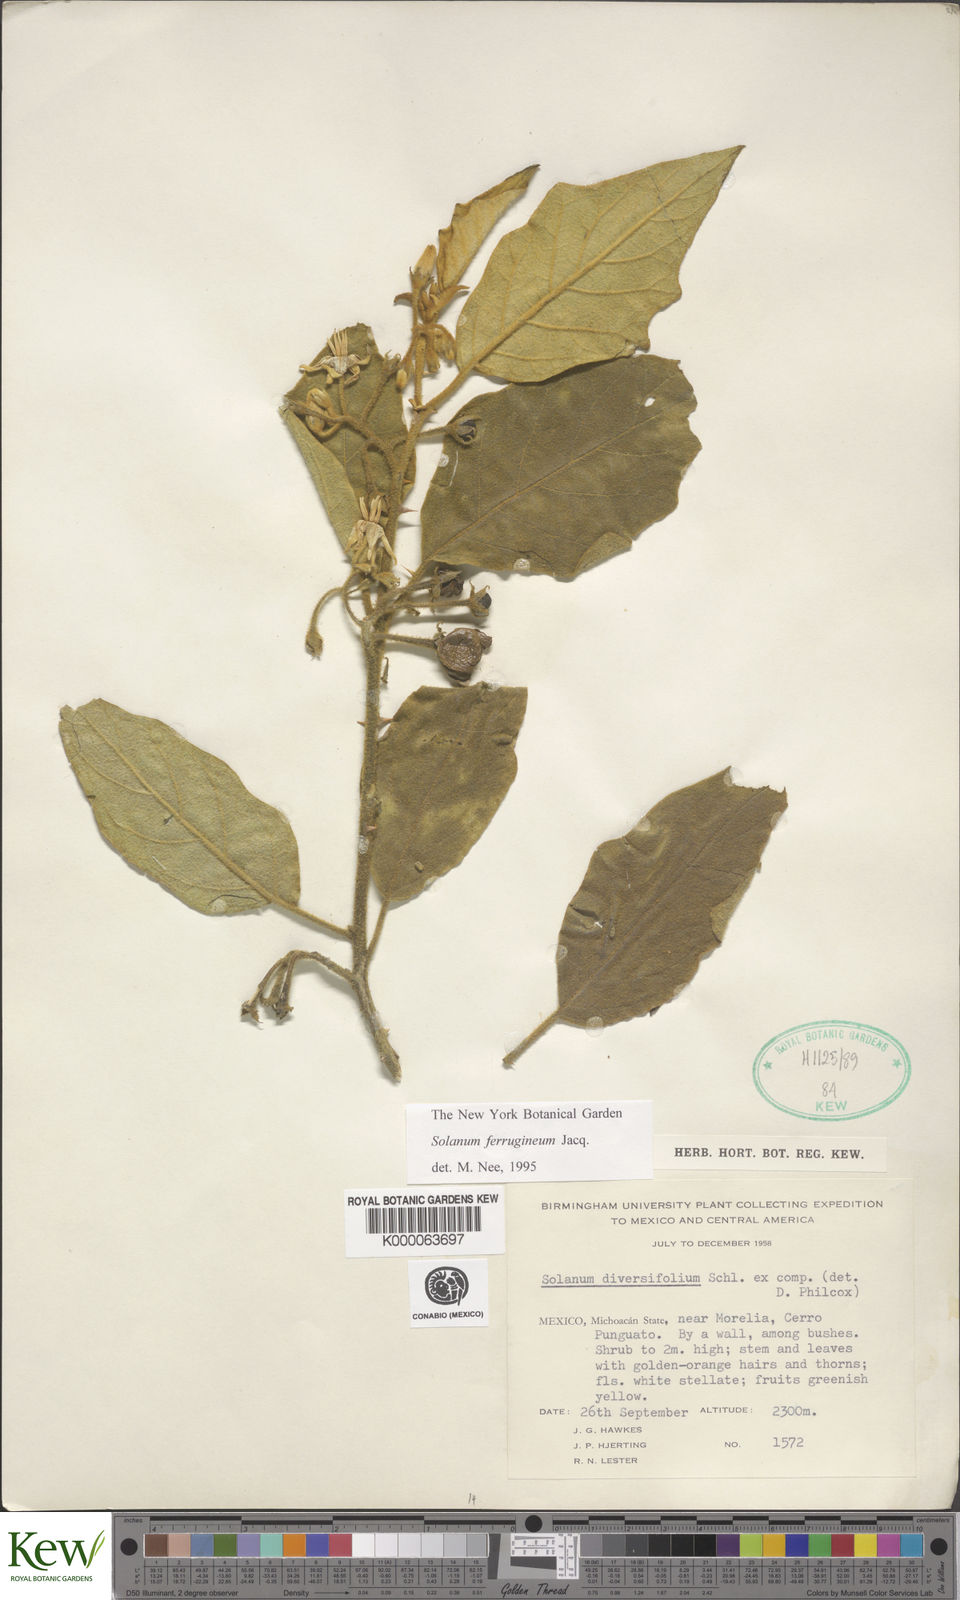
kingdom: Plantae
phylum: Tracheophyta
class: Magnoliopsida
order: Solanales
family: Solanaceae
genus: Solanum
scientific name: Solanum
